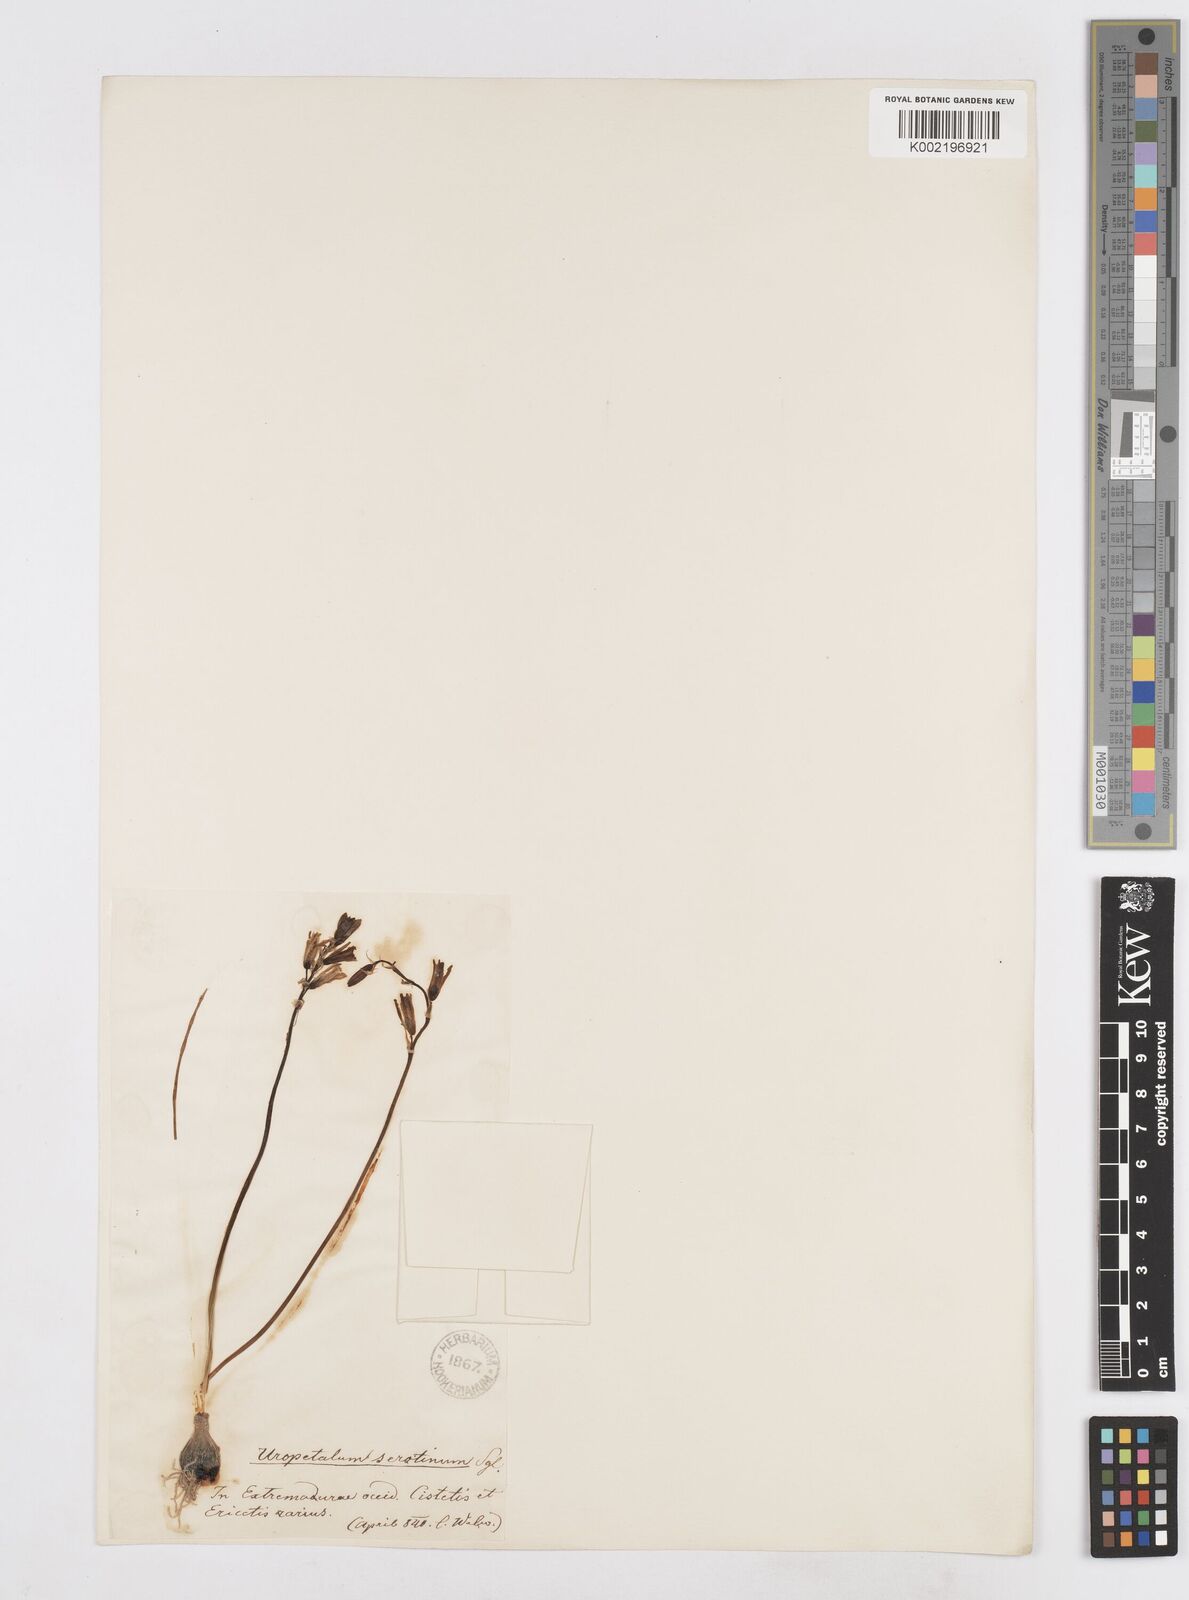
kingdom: Plantae
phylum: Tracheophyta
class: Liliopsida
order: Asparagales
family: Asparagaceae
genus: Dipcadi
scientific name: Dipcadi serotinum
